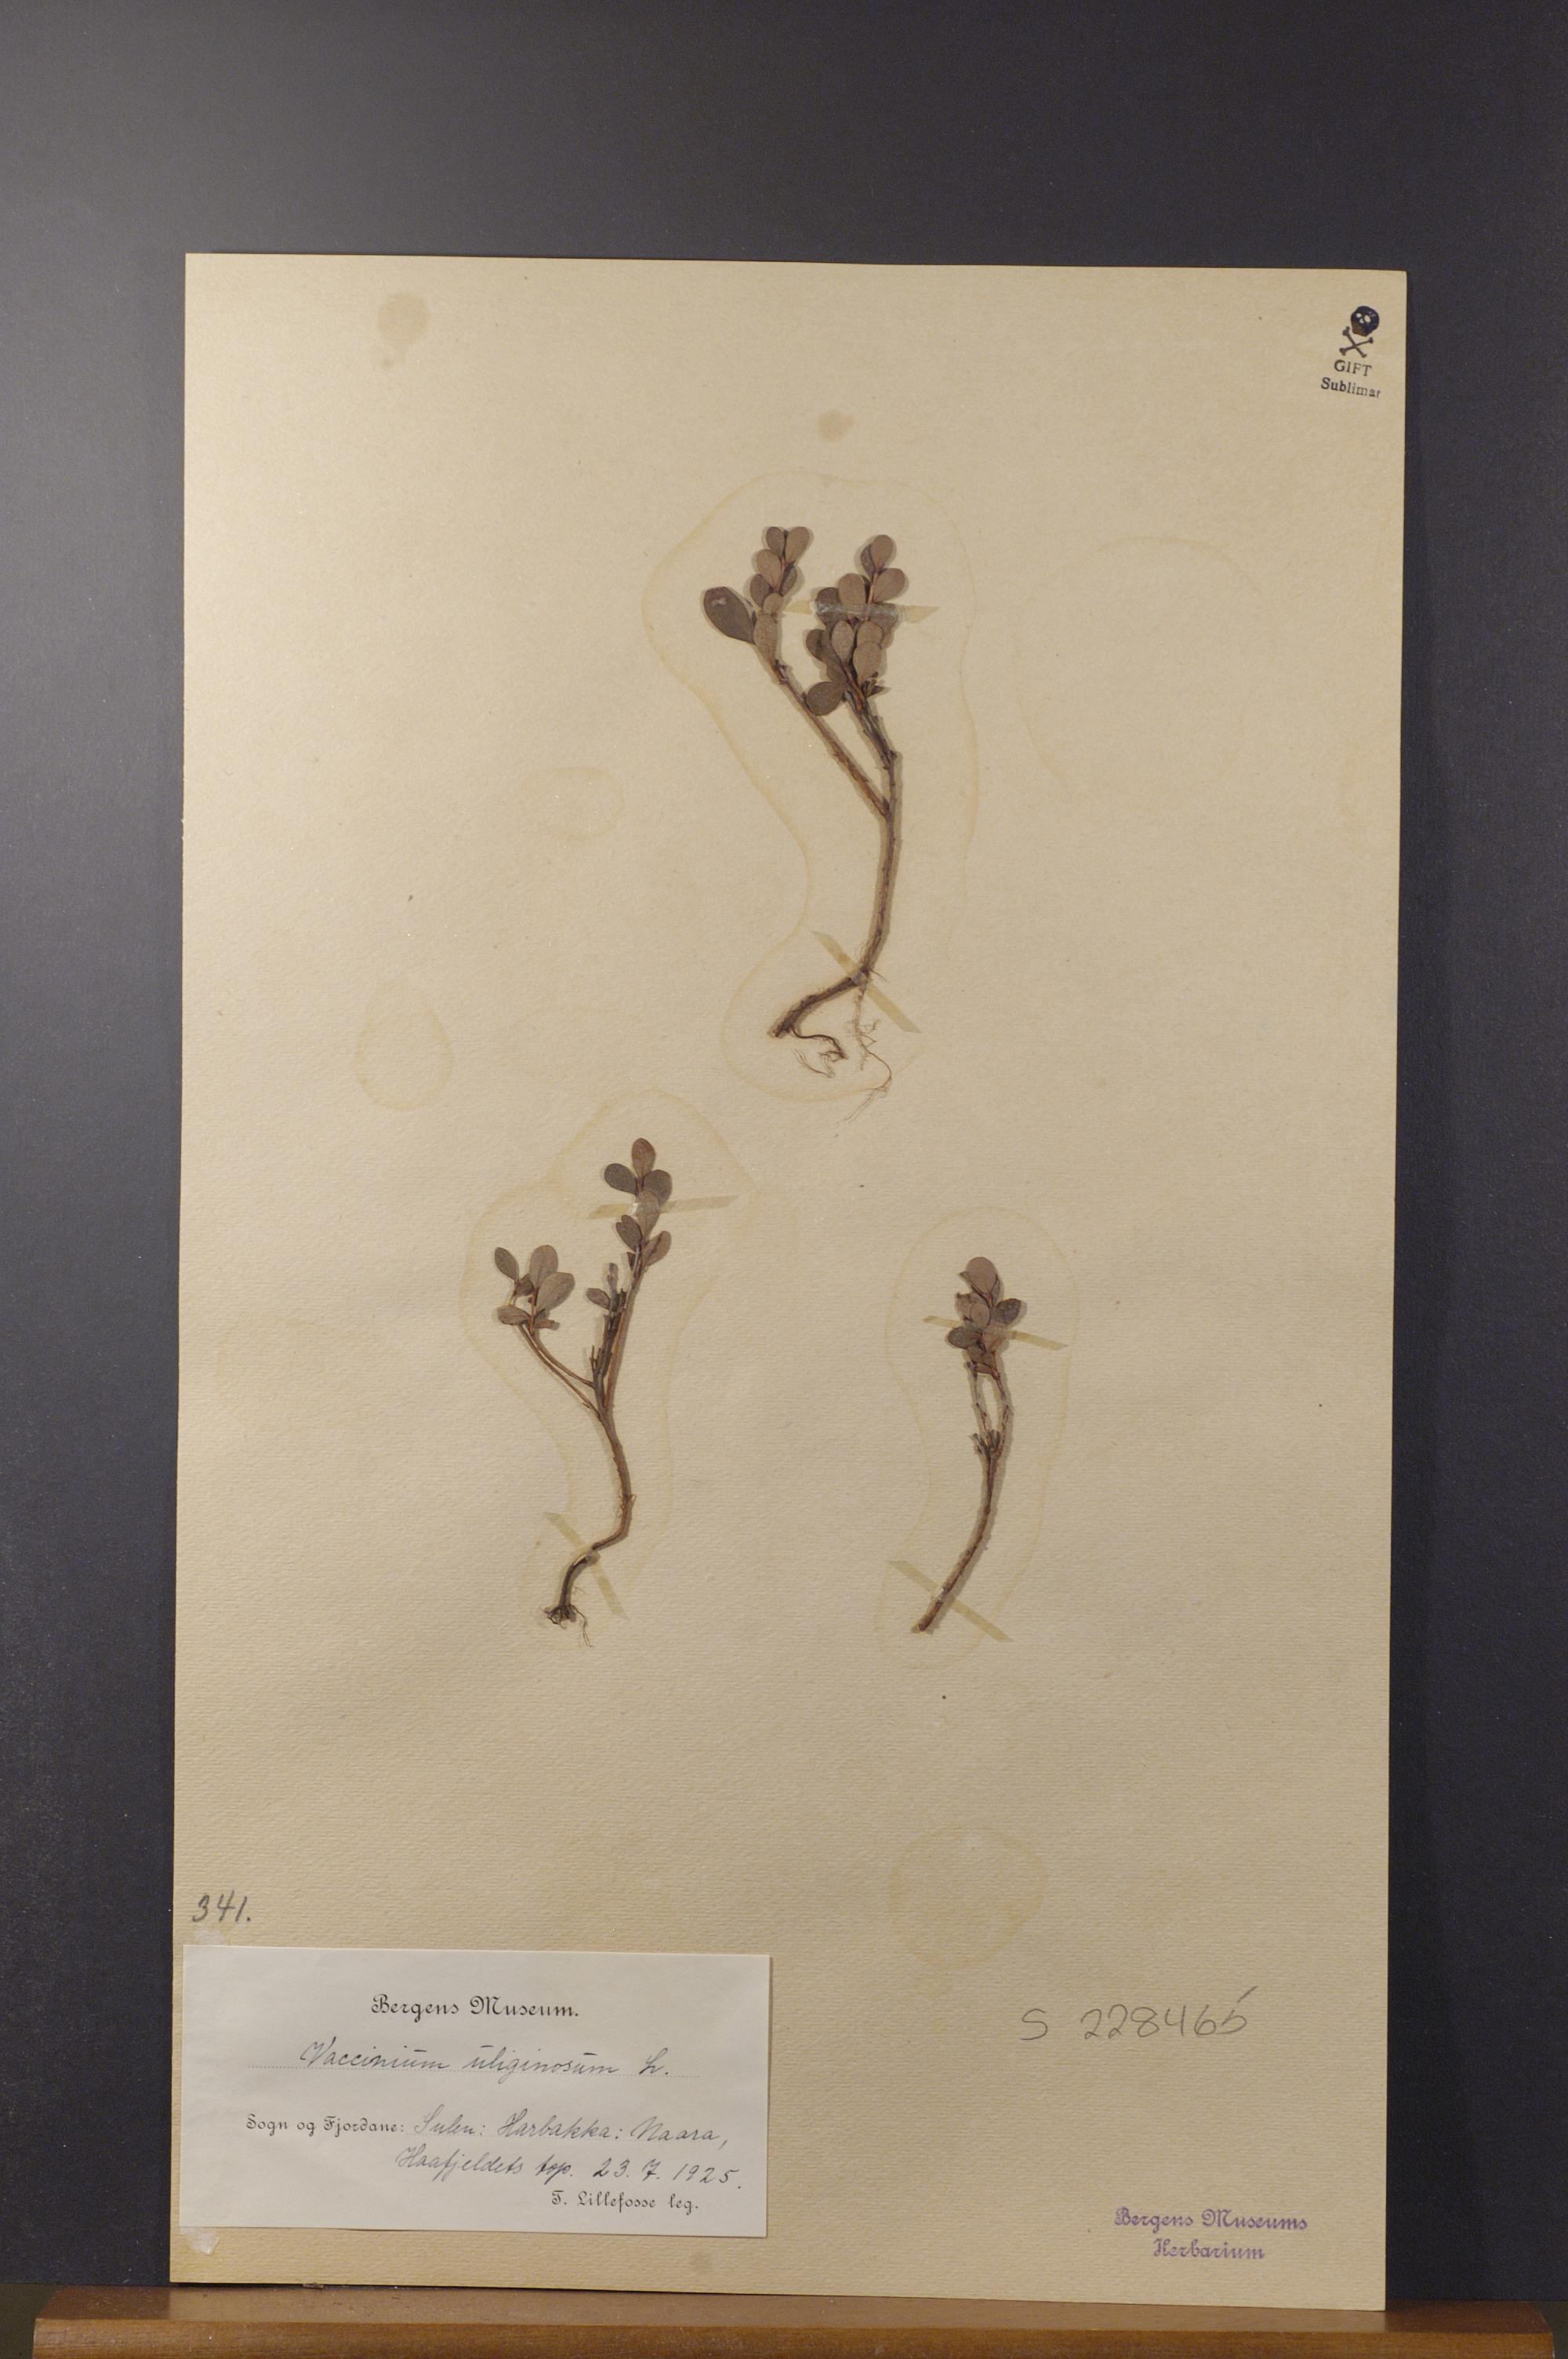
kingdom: Plantae
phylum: Tracheophyta
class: Magnoliopsida
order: Ericales
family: Ericaceae
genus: Vaccinium
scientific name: Vaccinium uliginosum
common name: Bog bilberry
